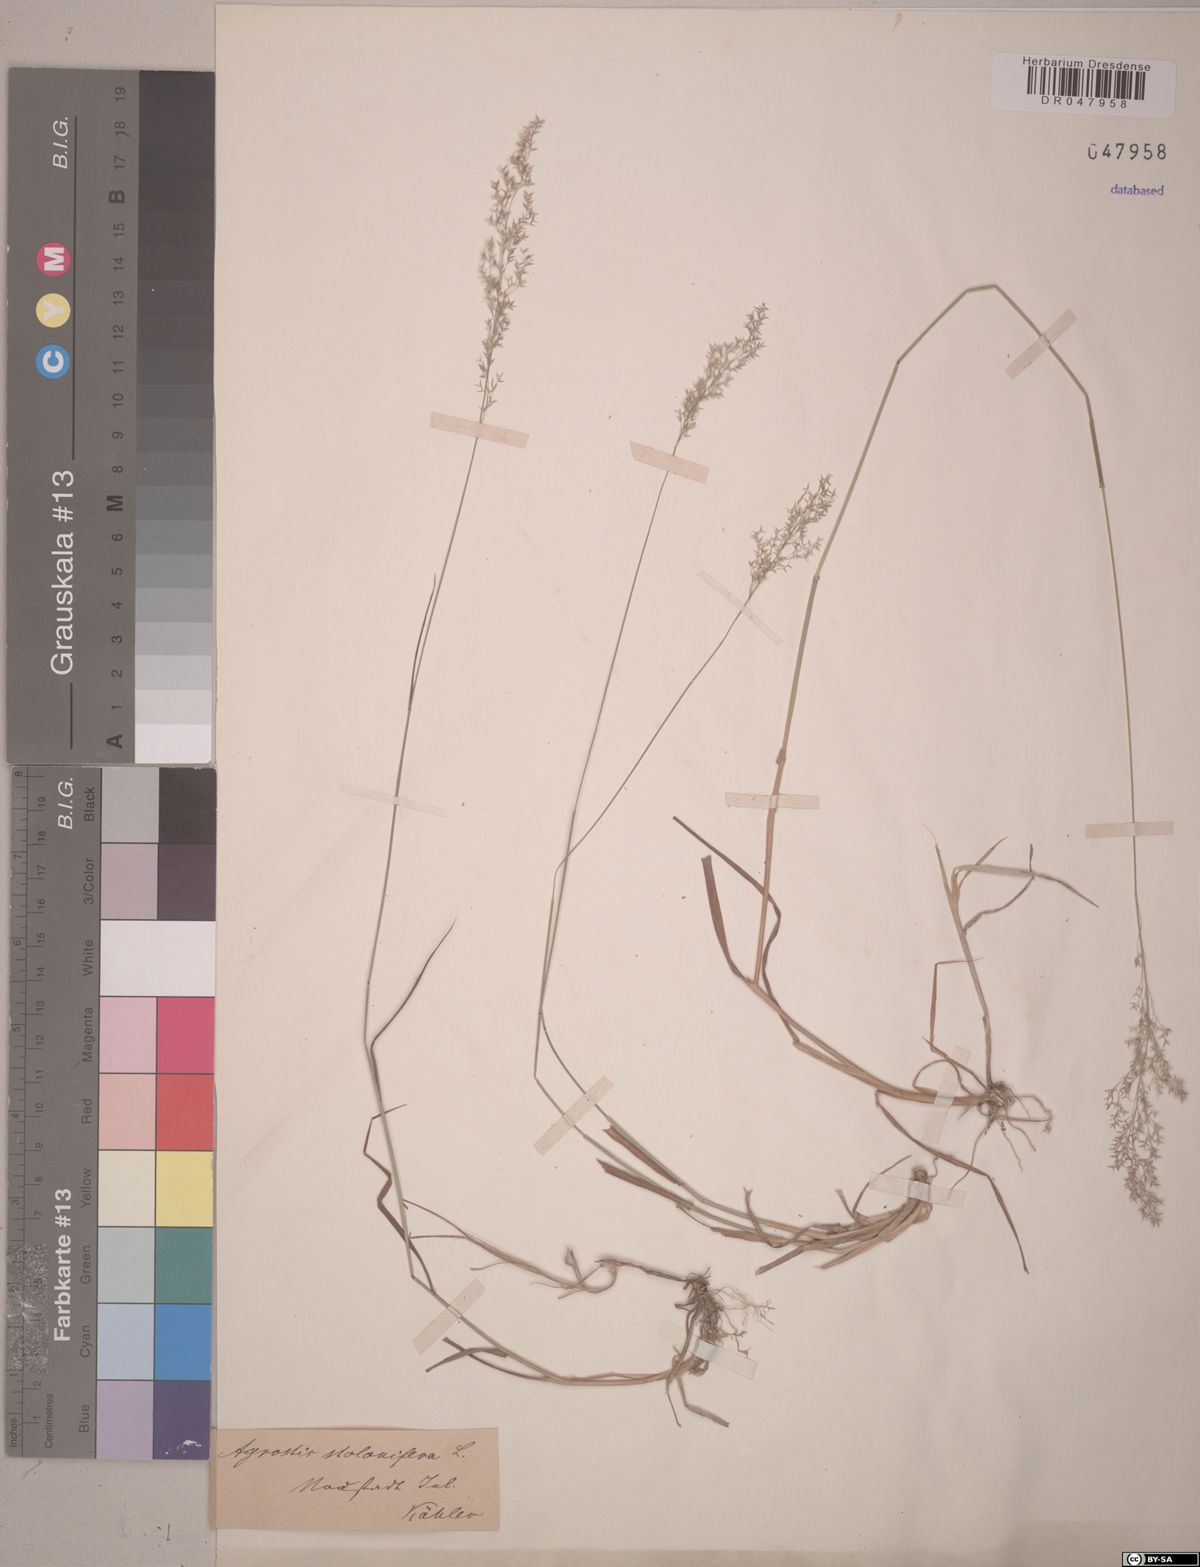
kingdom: Plantae
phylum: Tracheophyta
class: Liliopsida
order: Poales
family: Poaceae
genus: Agrostis
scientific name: Agrostis stolonifera
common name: Creeping bentgrass
